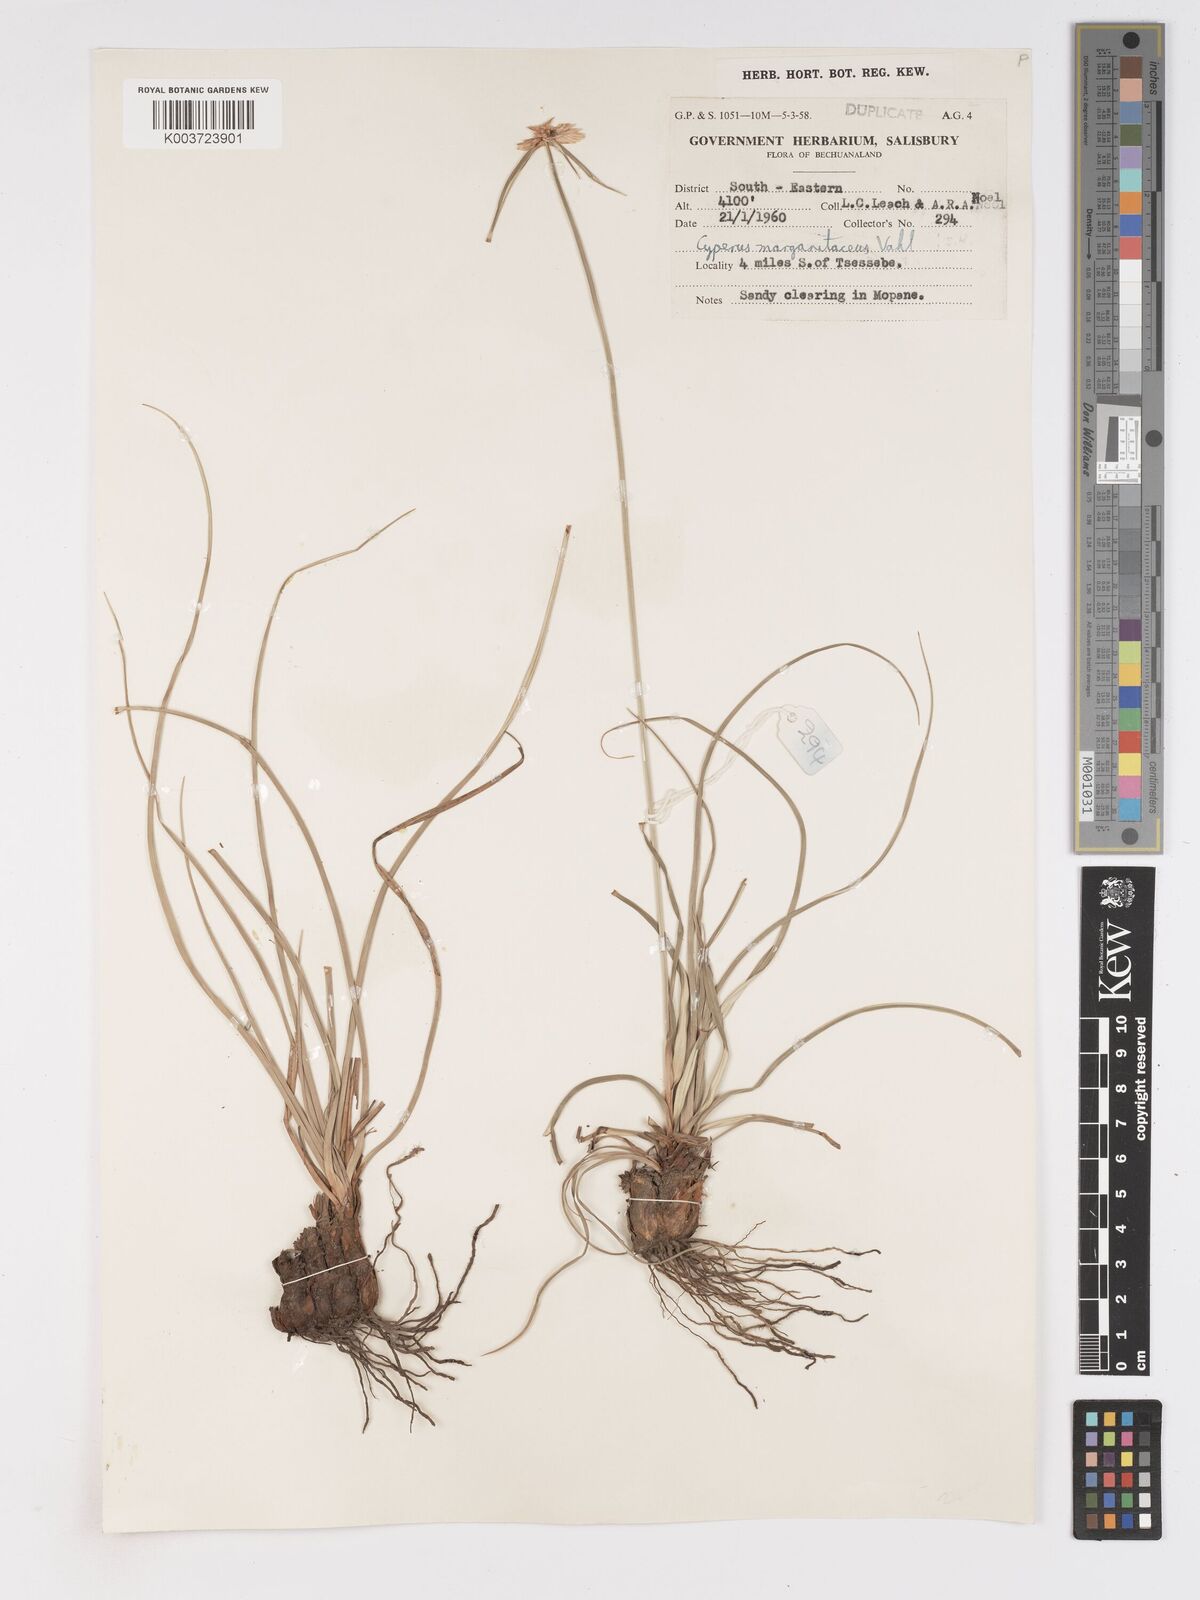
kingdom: Plantae
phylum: Tracheophyta
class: Liliopsida
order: Poales
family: Cyperaceae
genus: Cyperus
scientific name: Cyperus margaritaceus
